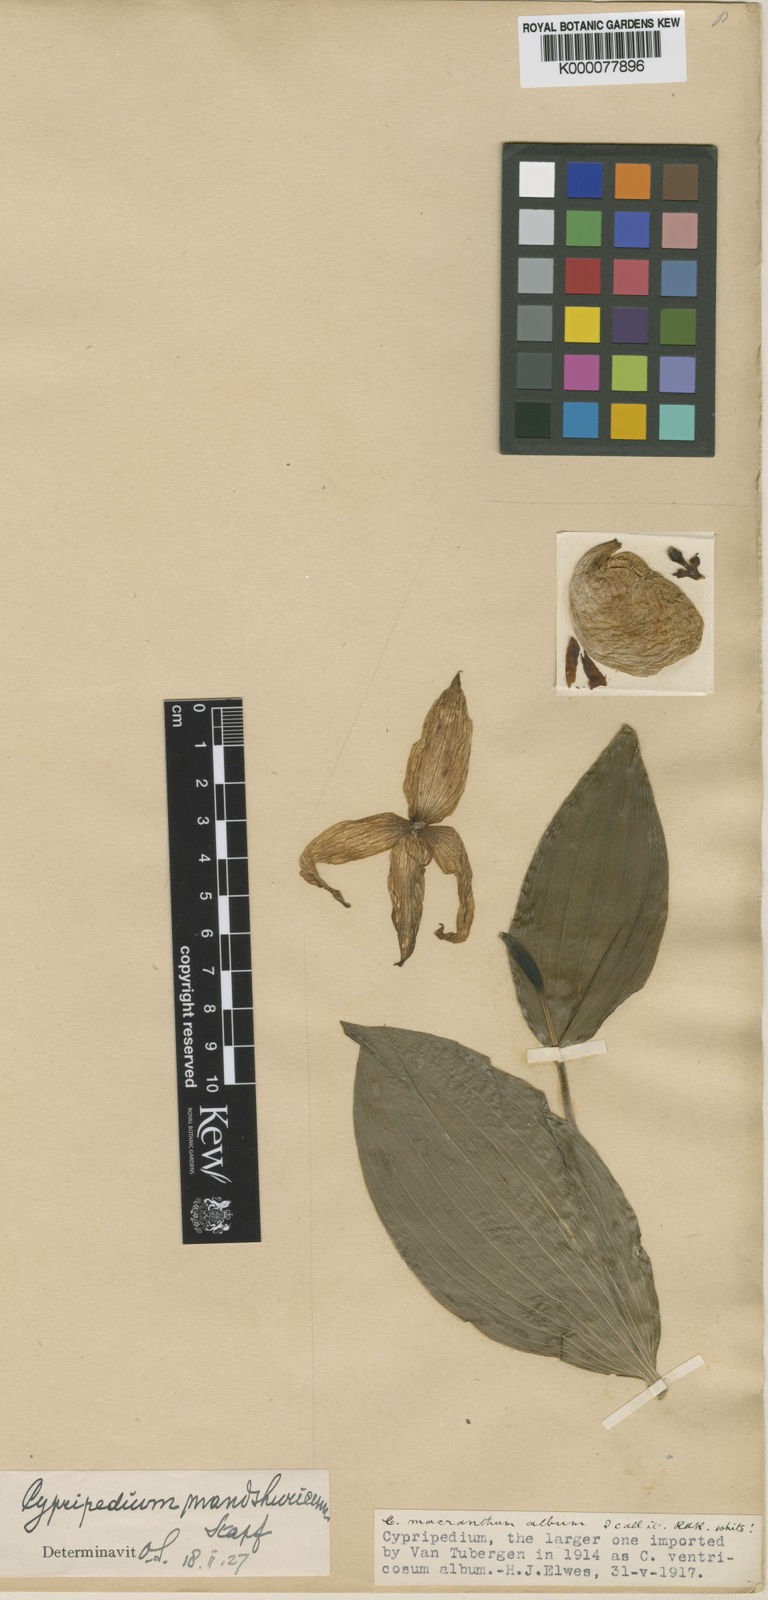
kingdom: Plantae
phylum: Tracheophyta
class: Liliopsida
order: Asparagales
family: Orchidaceae
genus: Cypripedium
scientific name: Cypripedium ventricosum
